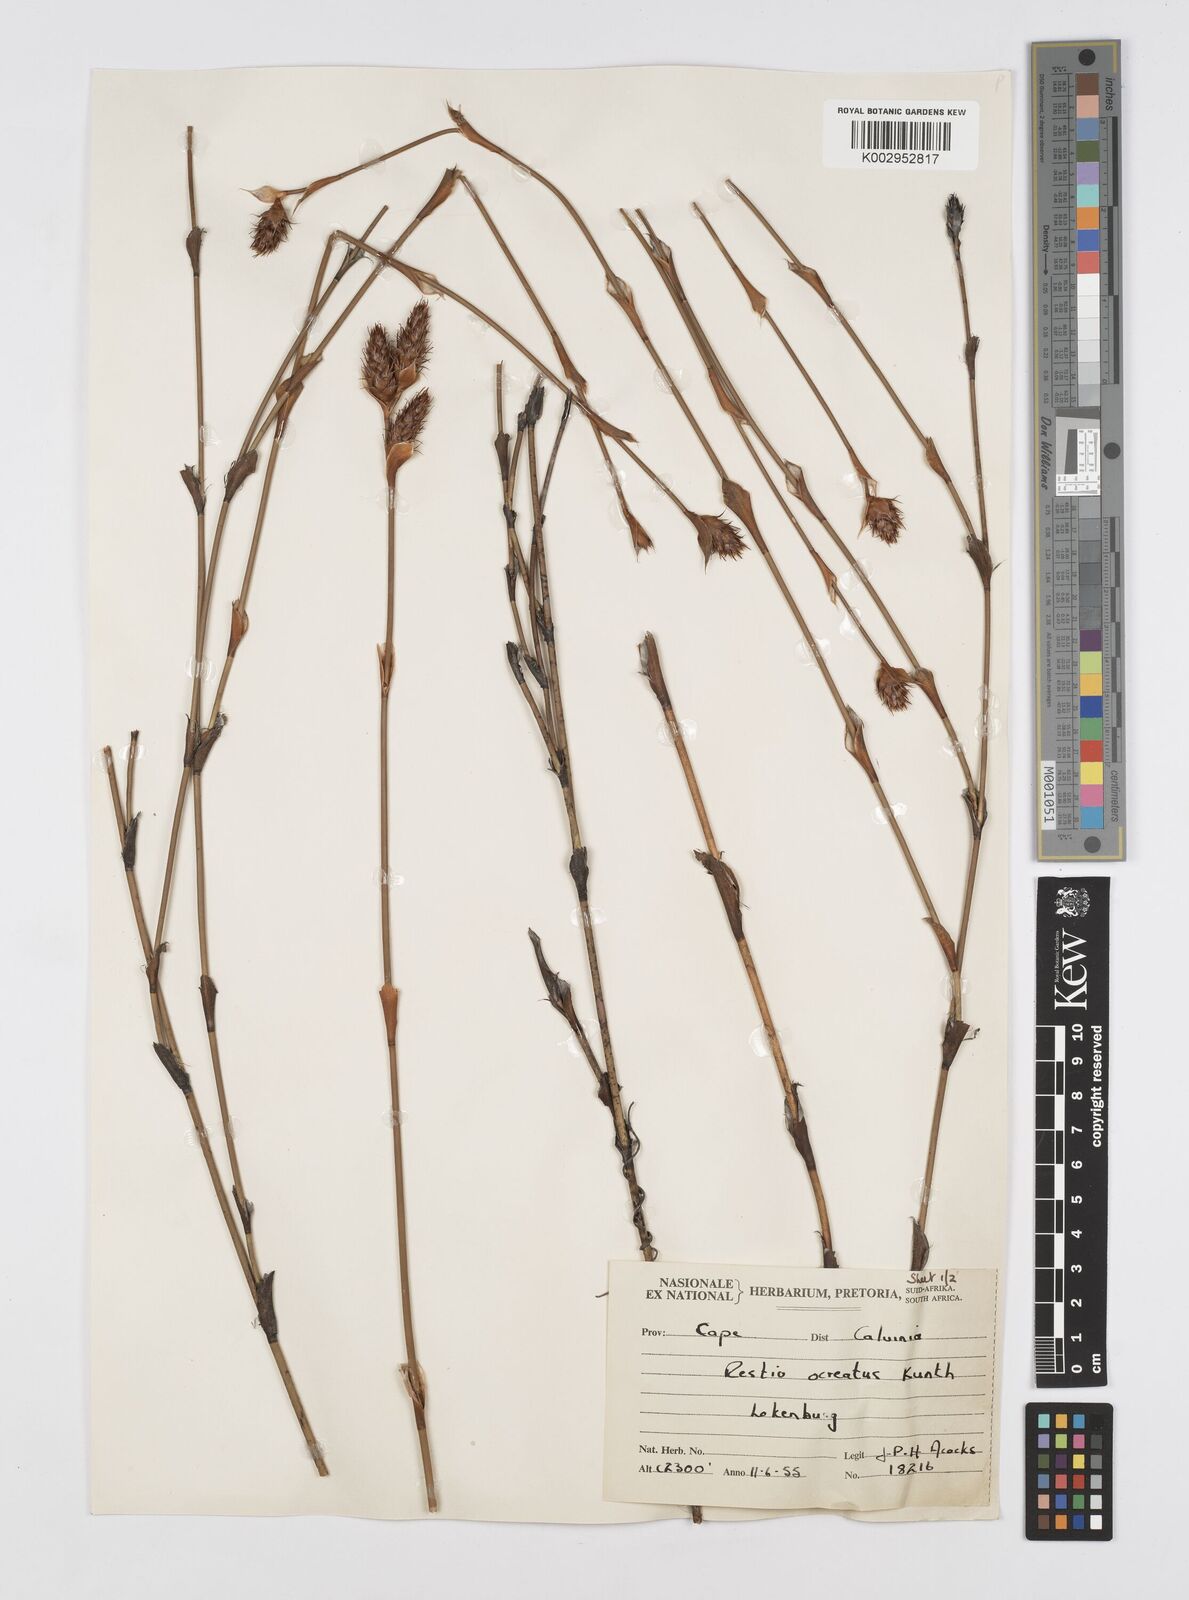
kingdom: Plantae
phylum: Tracheophyta
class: Liliopsida
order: Poales
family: Restionaceae
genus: Restio
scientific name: Restio ocreatus
